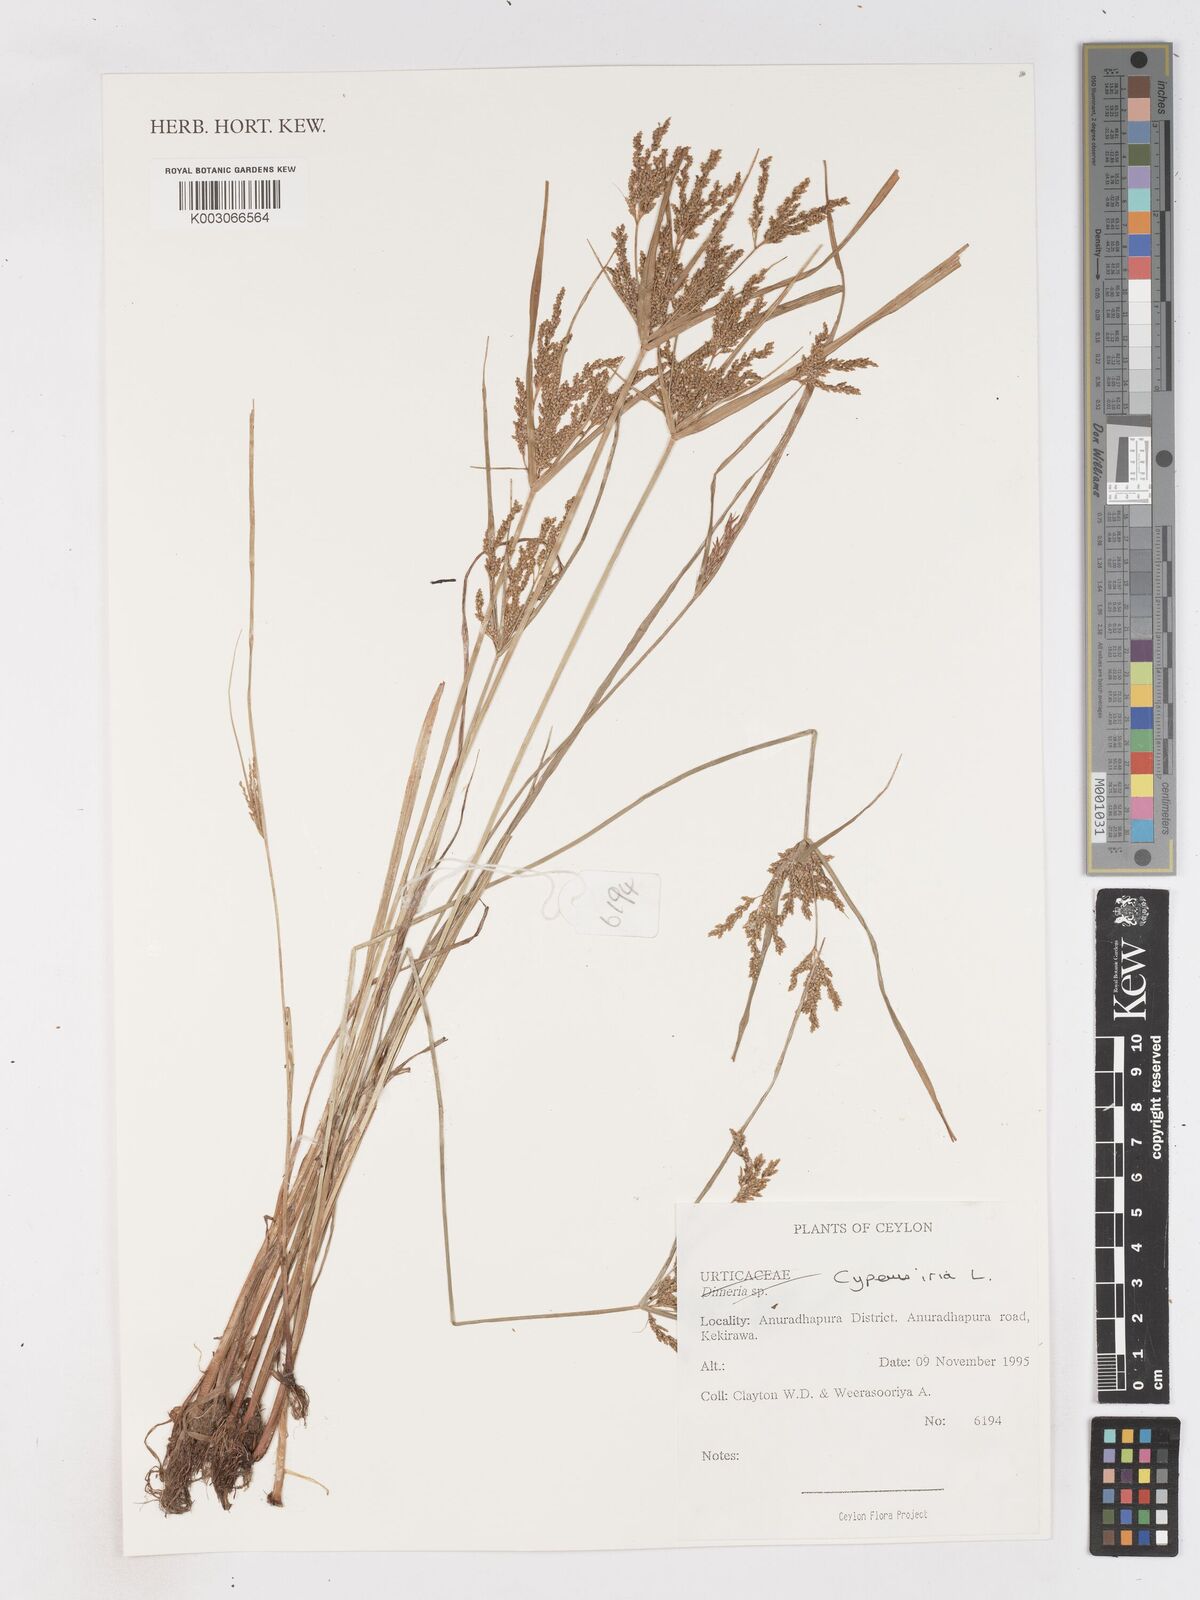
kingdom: Plantae
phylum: Tracheophyta
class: Liliopsida
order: Poales
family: Cyperaceae
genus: Cyperus
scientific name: Cyperus iria
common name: Ricefield flatsedge
